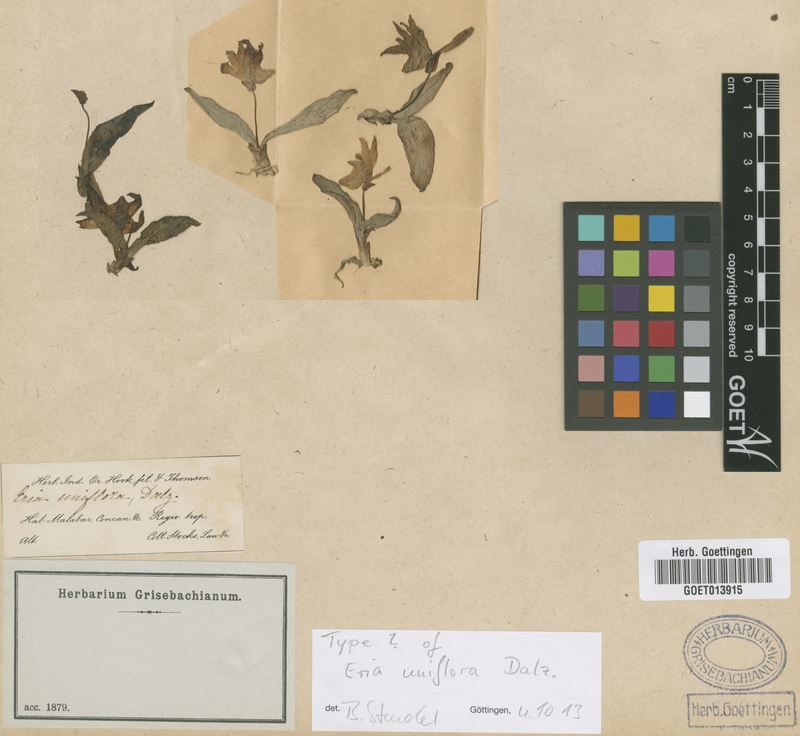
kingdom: Plantae
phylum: Tracheophyta
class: Liliopsida
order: Asparagales
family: Orchidaceae
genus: Porpax
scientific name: Porpax braccata
